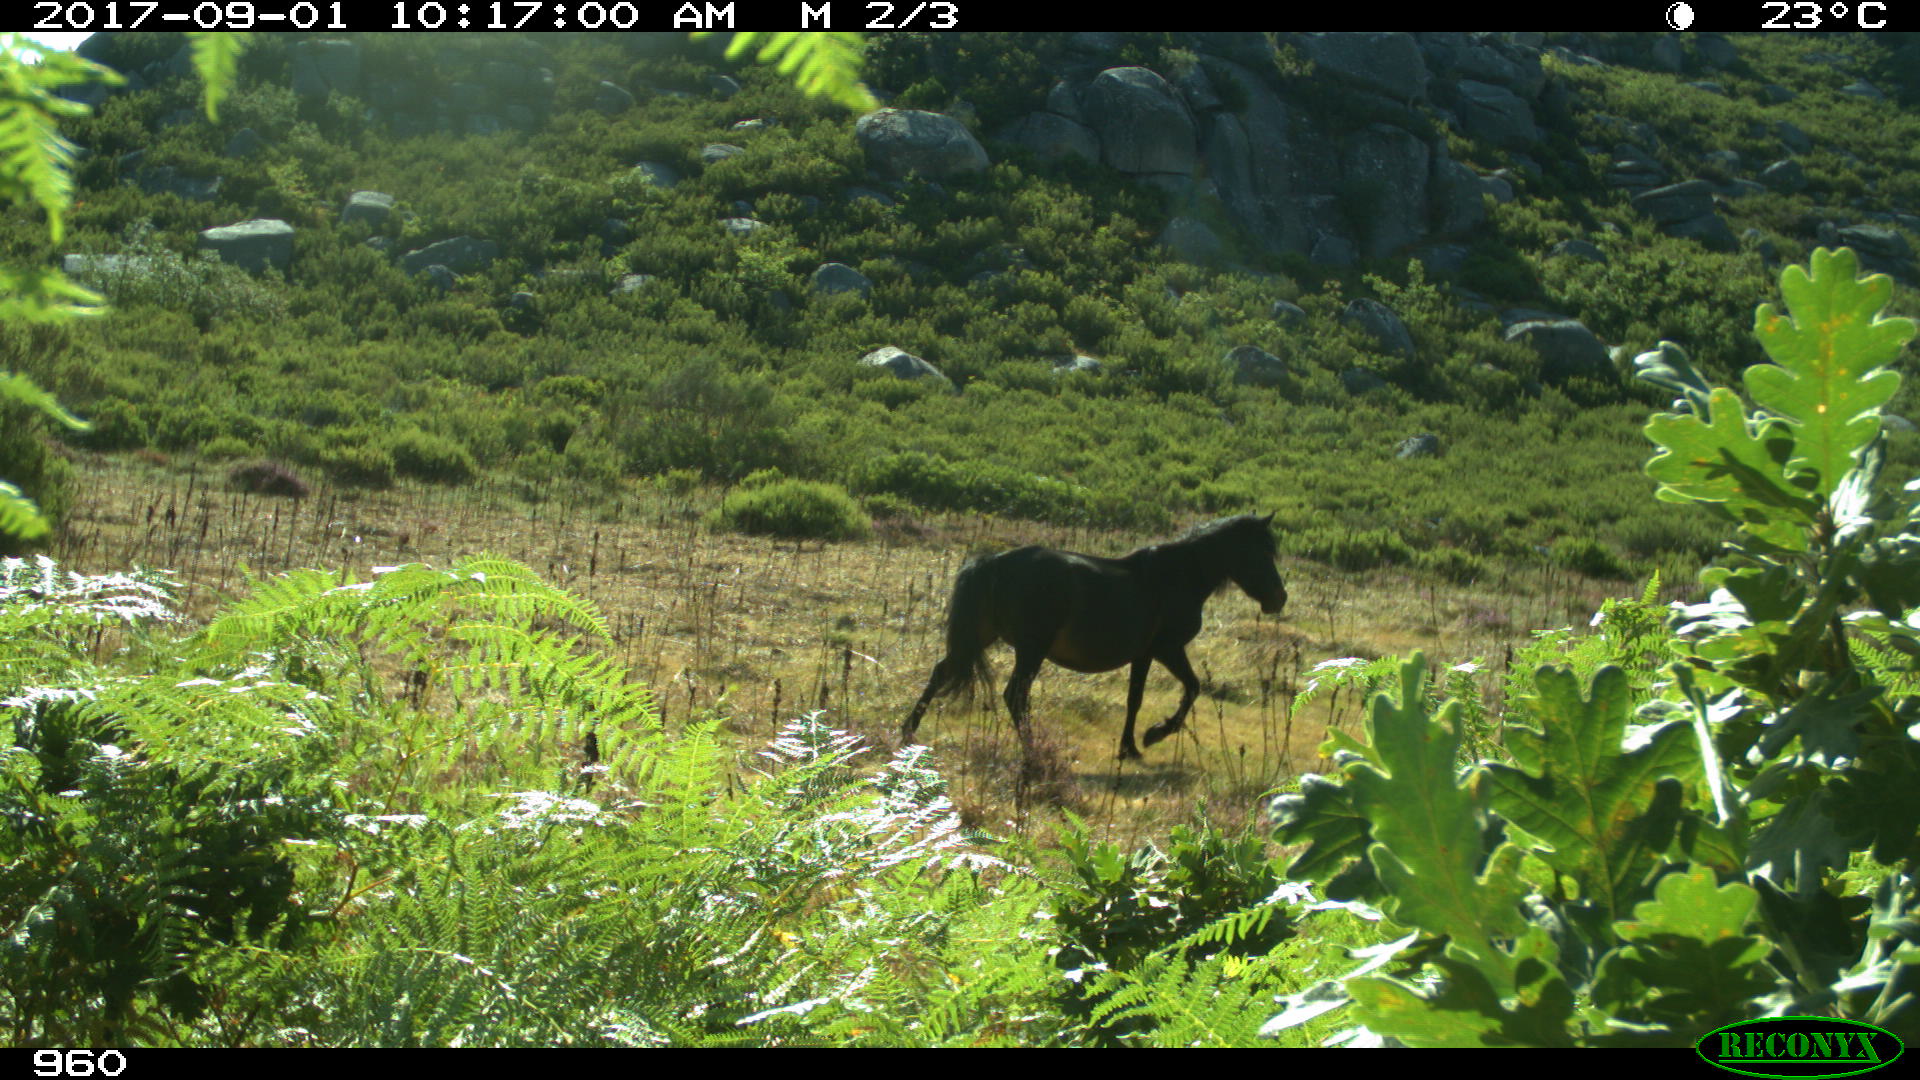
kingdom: Animalia
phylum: Chordata
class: Mammalia
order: Perissodactyla
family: Equidae
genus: Equus
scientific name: Equus caballus
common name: Horse
